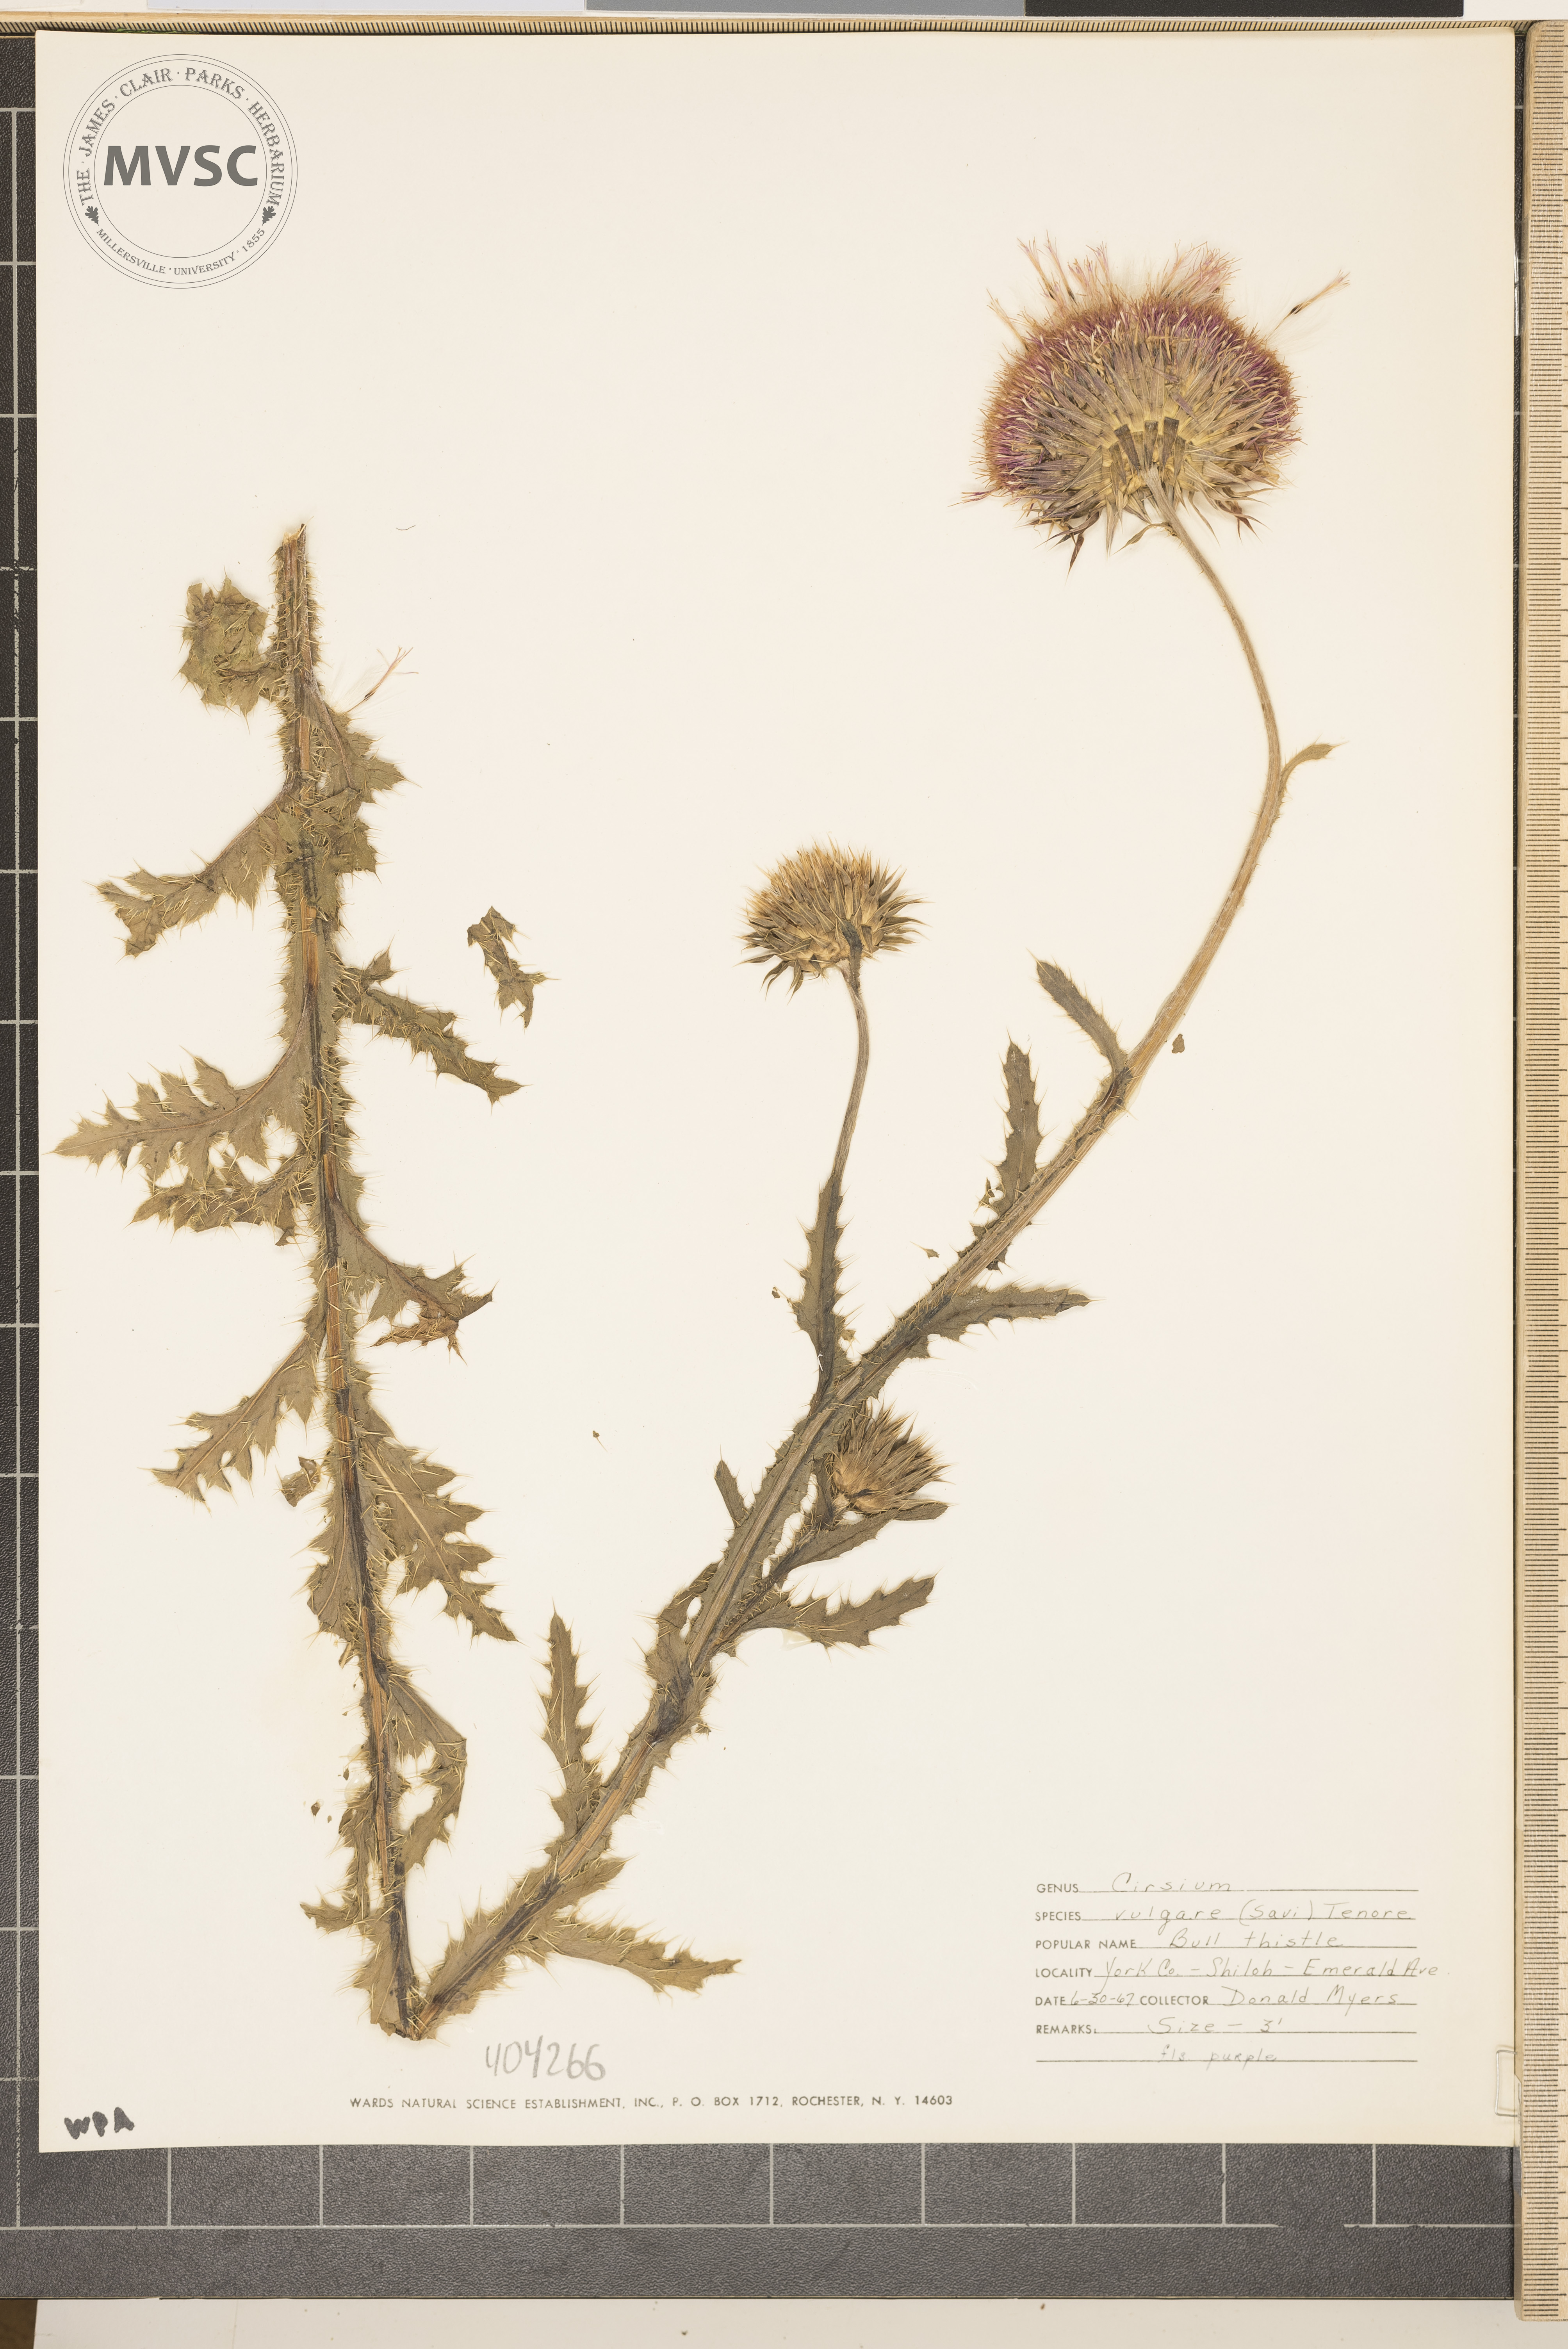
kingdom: Plantae
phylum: Tracheophyta
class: Magnoliopsida
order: Asterales
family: Asteraceae
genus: Cirsium
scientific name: Cirsium vulgare
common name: Bull Thistle
